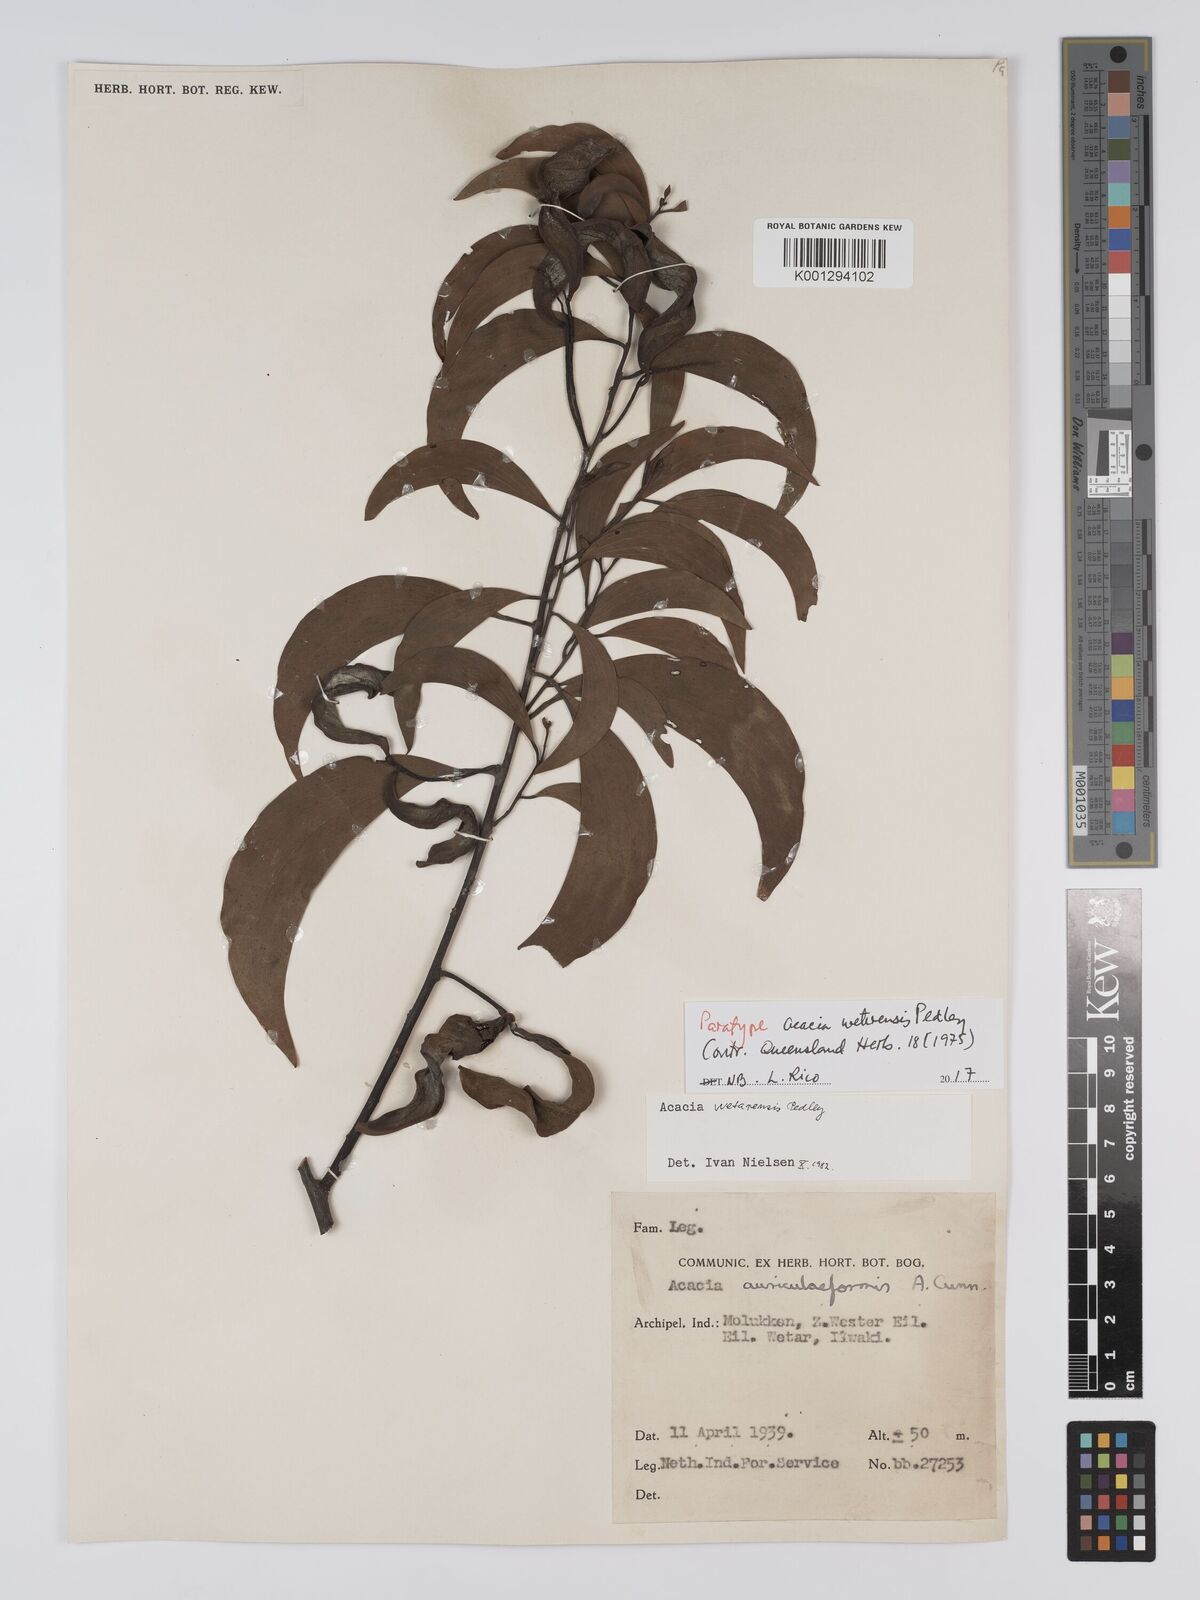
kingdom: Plantae
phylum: Tracheophyta
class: Magnoliopsida
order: Fabales
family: Fabaceae
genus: Acacia
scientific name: Acacia wetarensis
